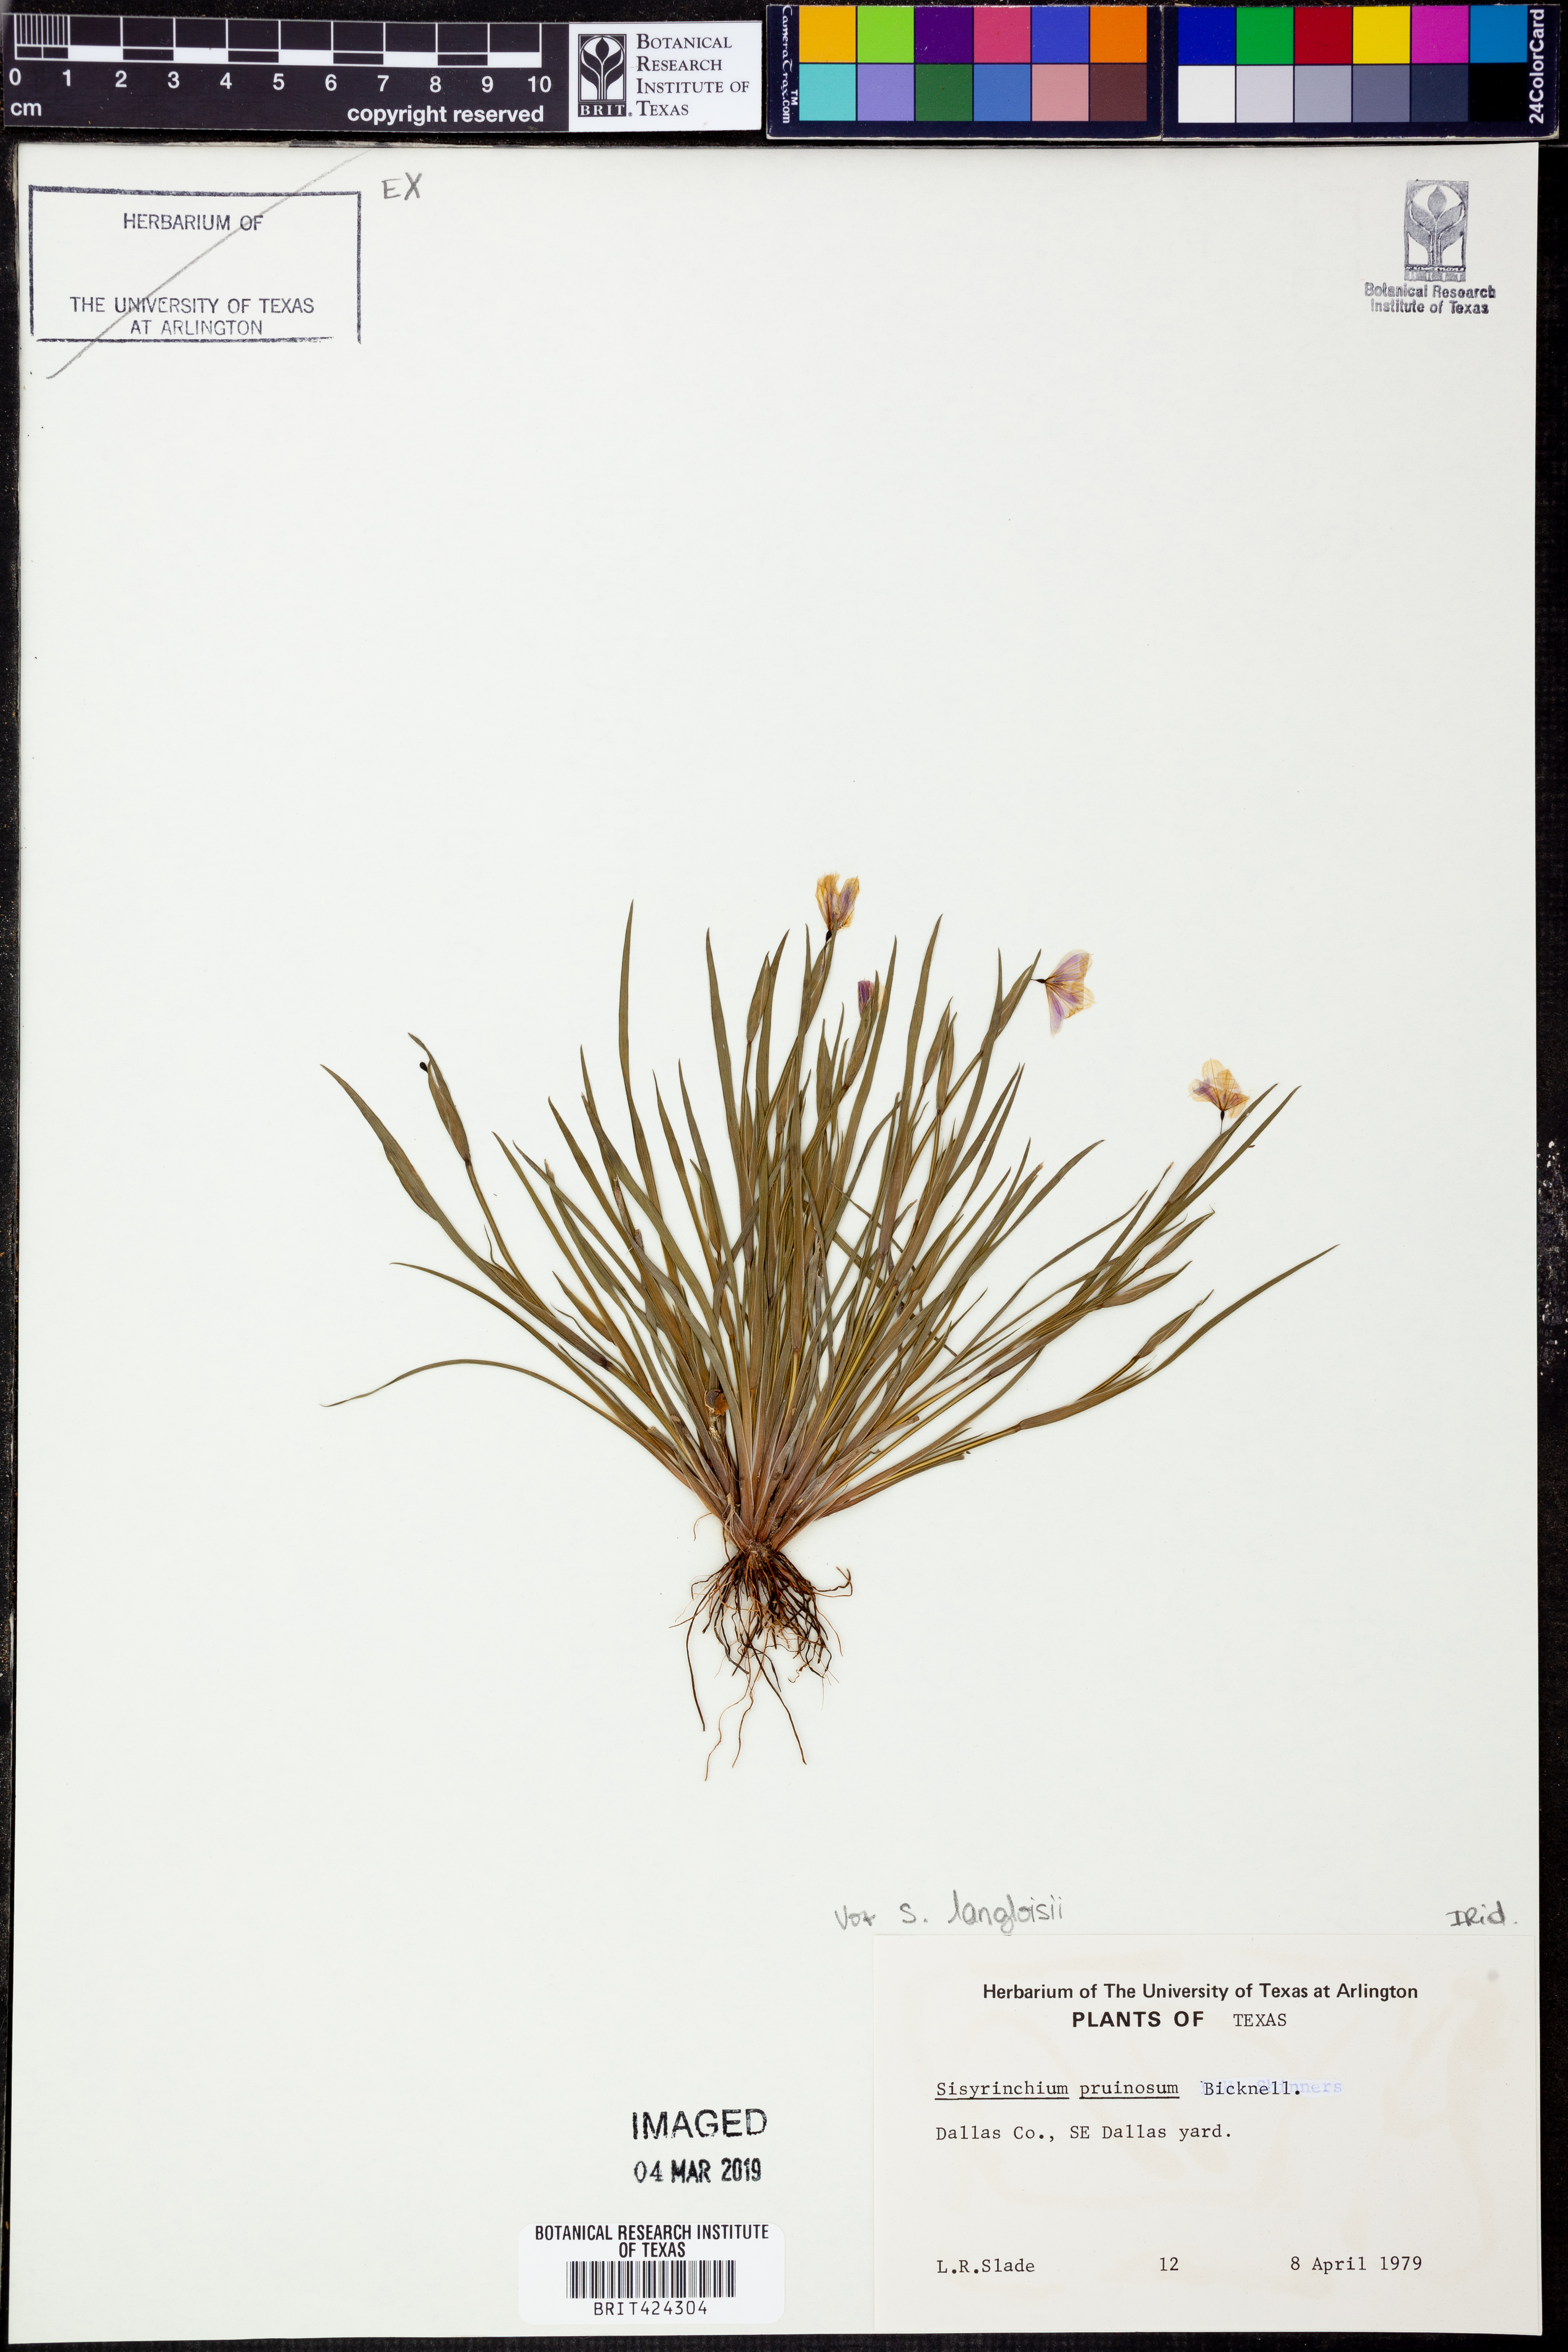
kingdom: Plantae
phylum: Tracheophyta
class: Liliopsida
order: Asparagales
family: Iridaceae
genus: Sisyrinchium
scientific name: Sisyrinchium langloisii
